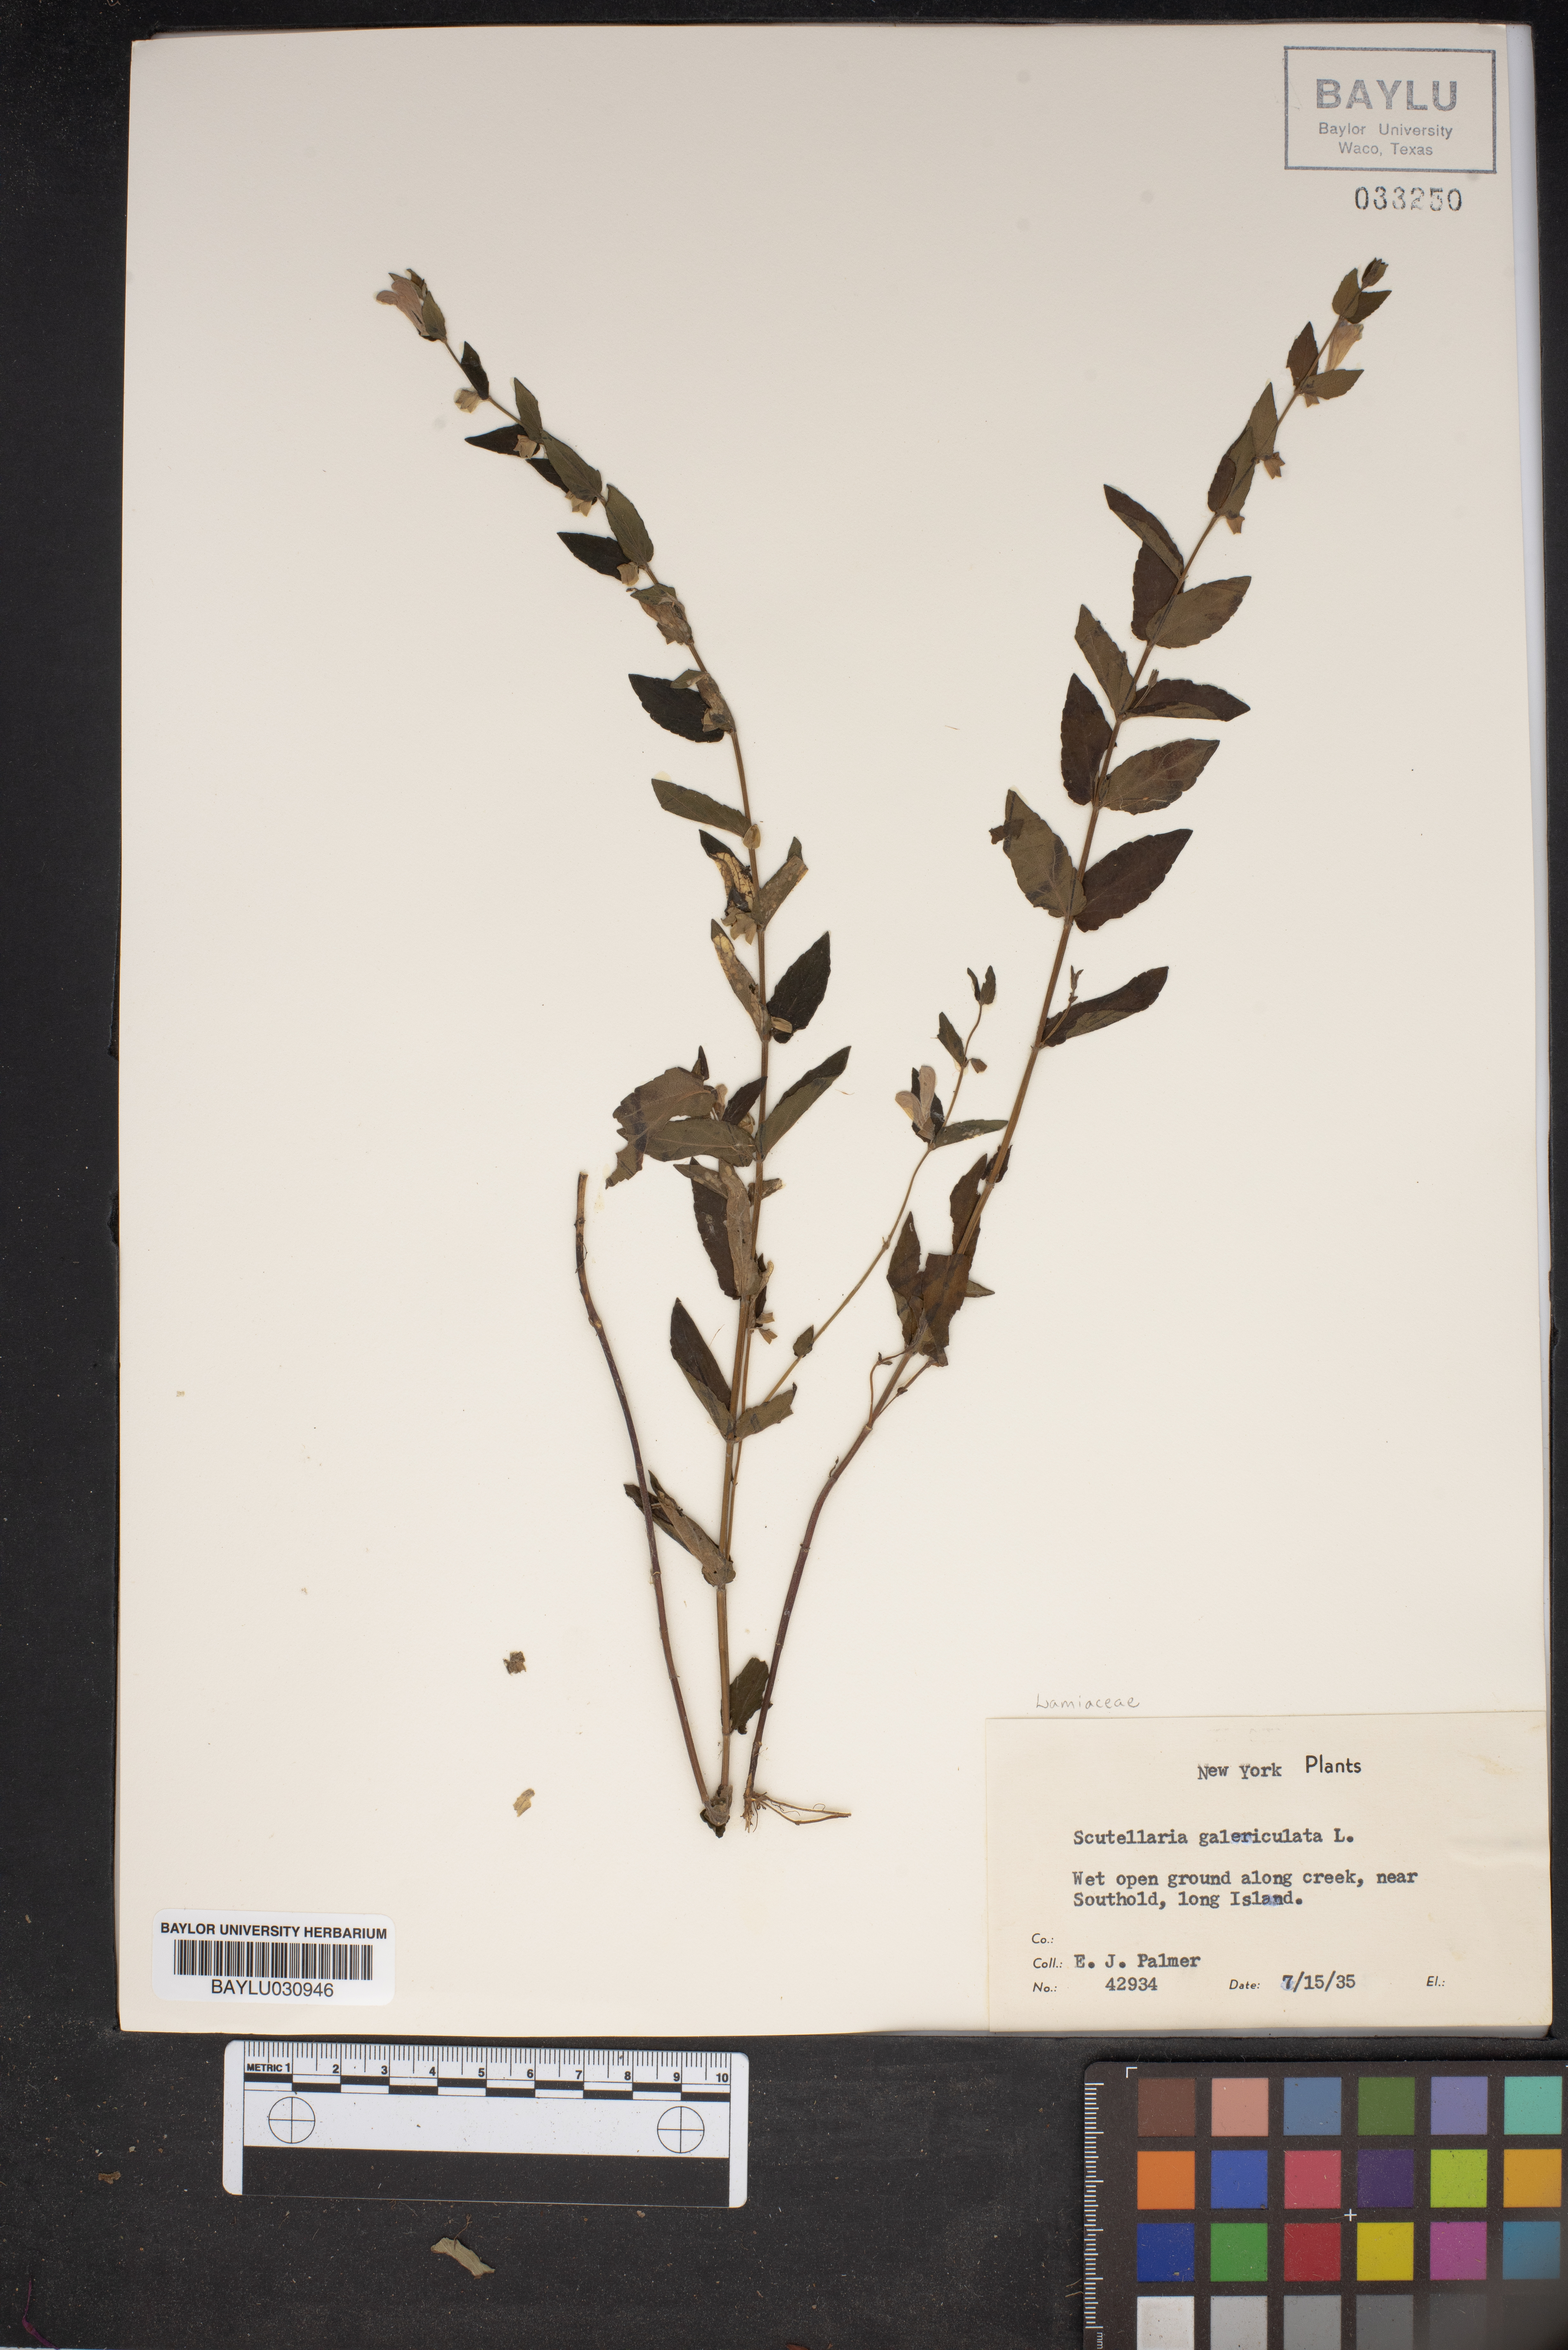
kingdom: Plantae
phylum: Tracheophyta
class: Magnoliopsida
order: Lamiales
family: Lamiaceae
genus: Scutellaria
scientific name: Scutellaria galericulata
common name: Skullcap
